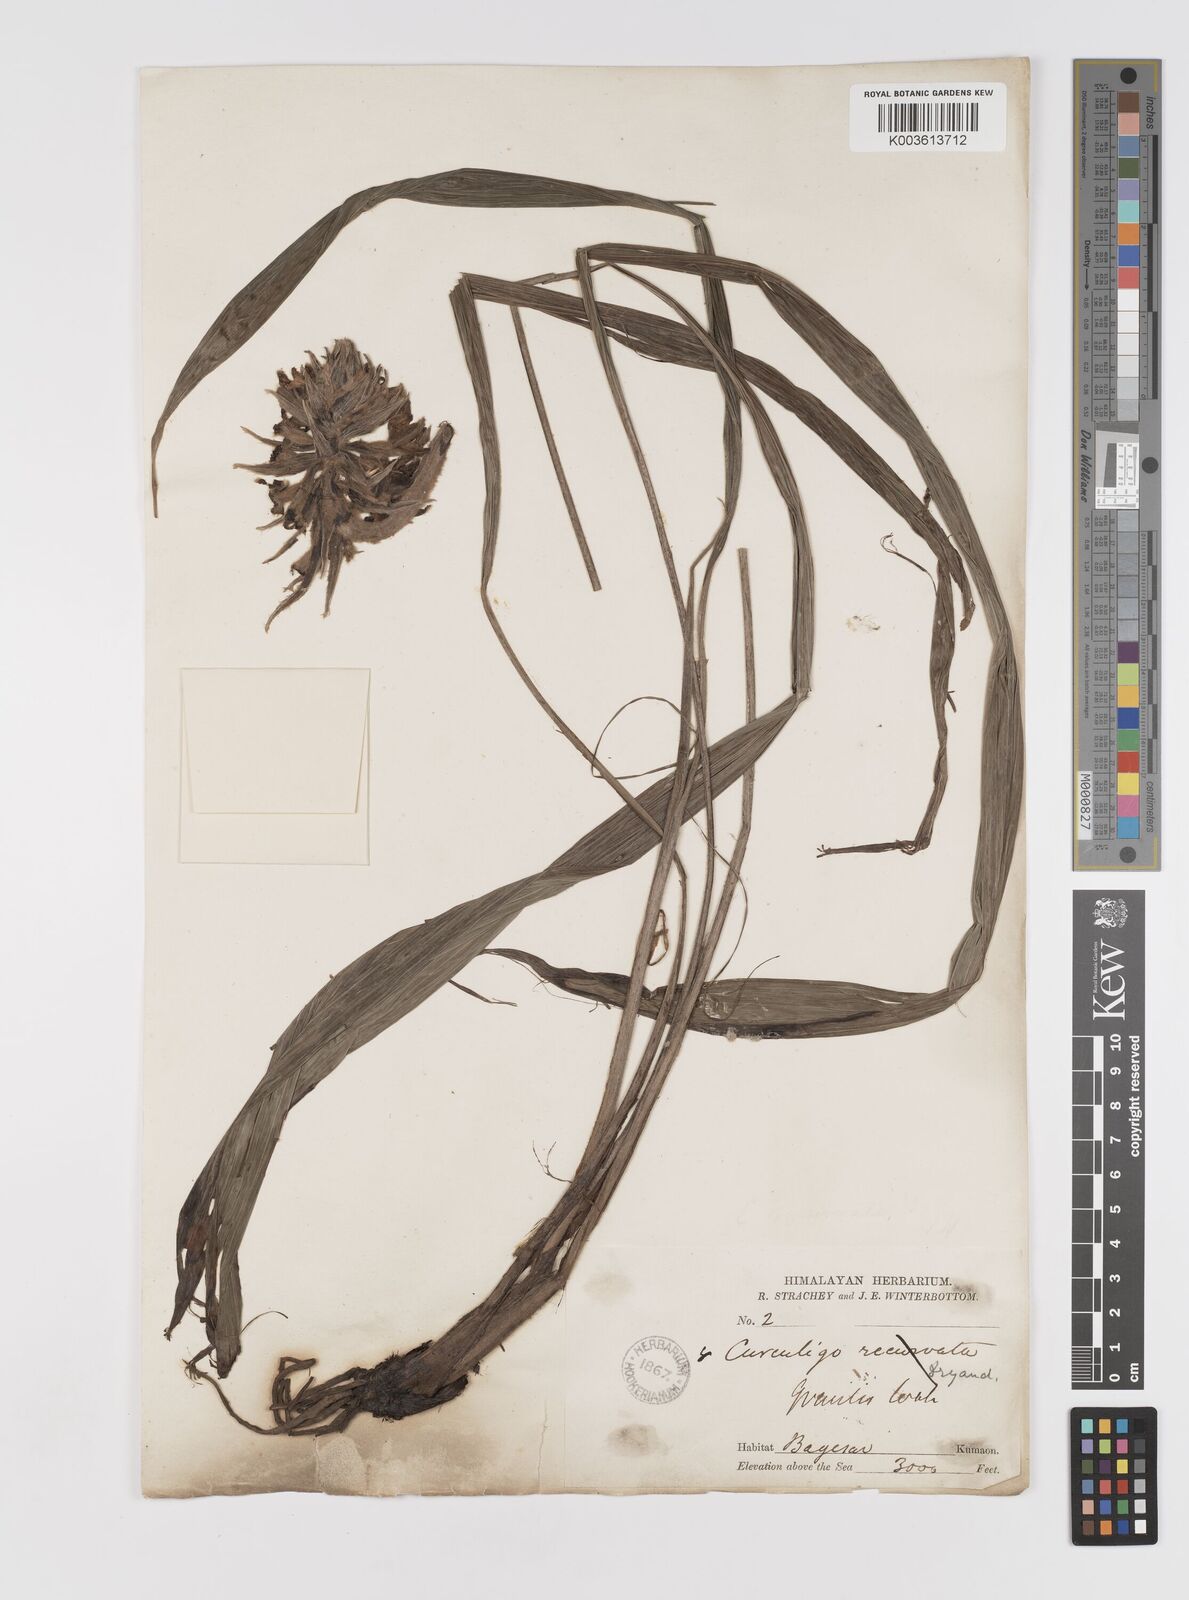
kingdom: Plantae
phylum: Tracheophyta
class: Liliopsida
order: Asparagales
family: Hypoxidaceae
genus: Curculigo
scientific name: Curculigo capitulata
